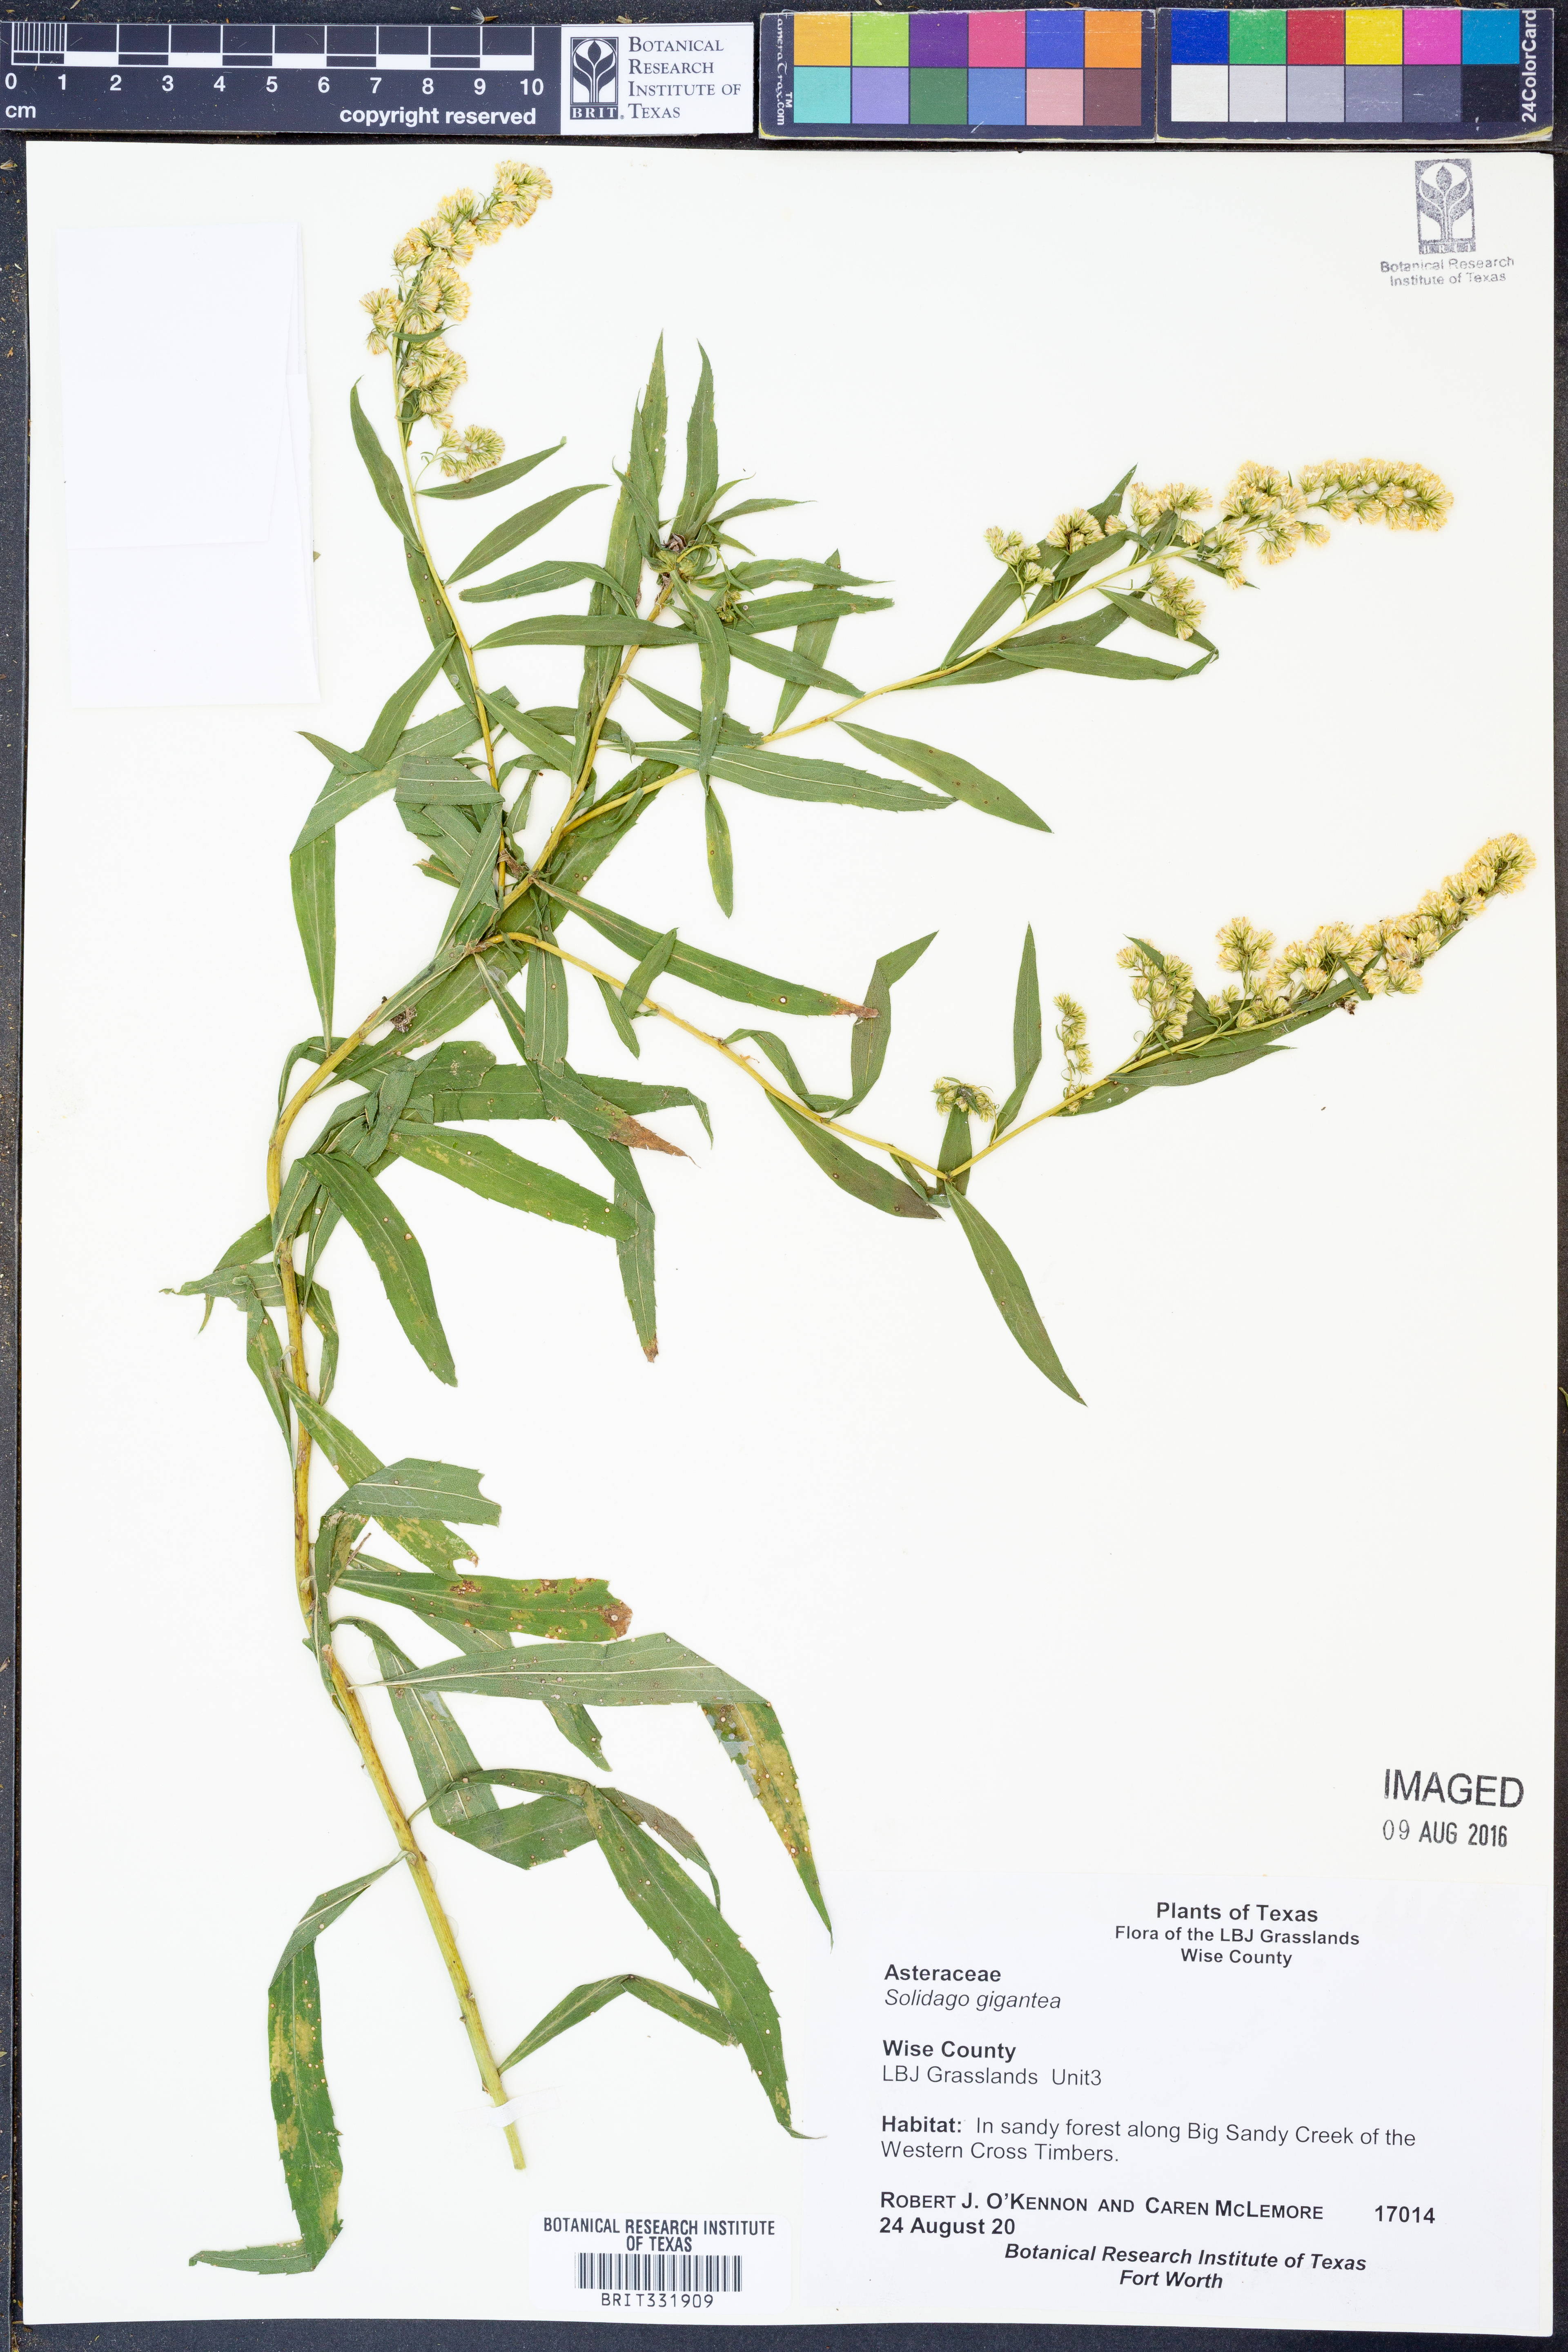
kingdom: Plantae
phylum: Tracheophyta
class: Magnoliopsida
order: Asterales
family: Asteraceae
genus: Solidago
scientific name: Solidago gigantea
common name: Giant goldenrod
